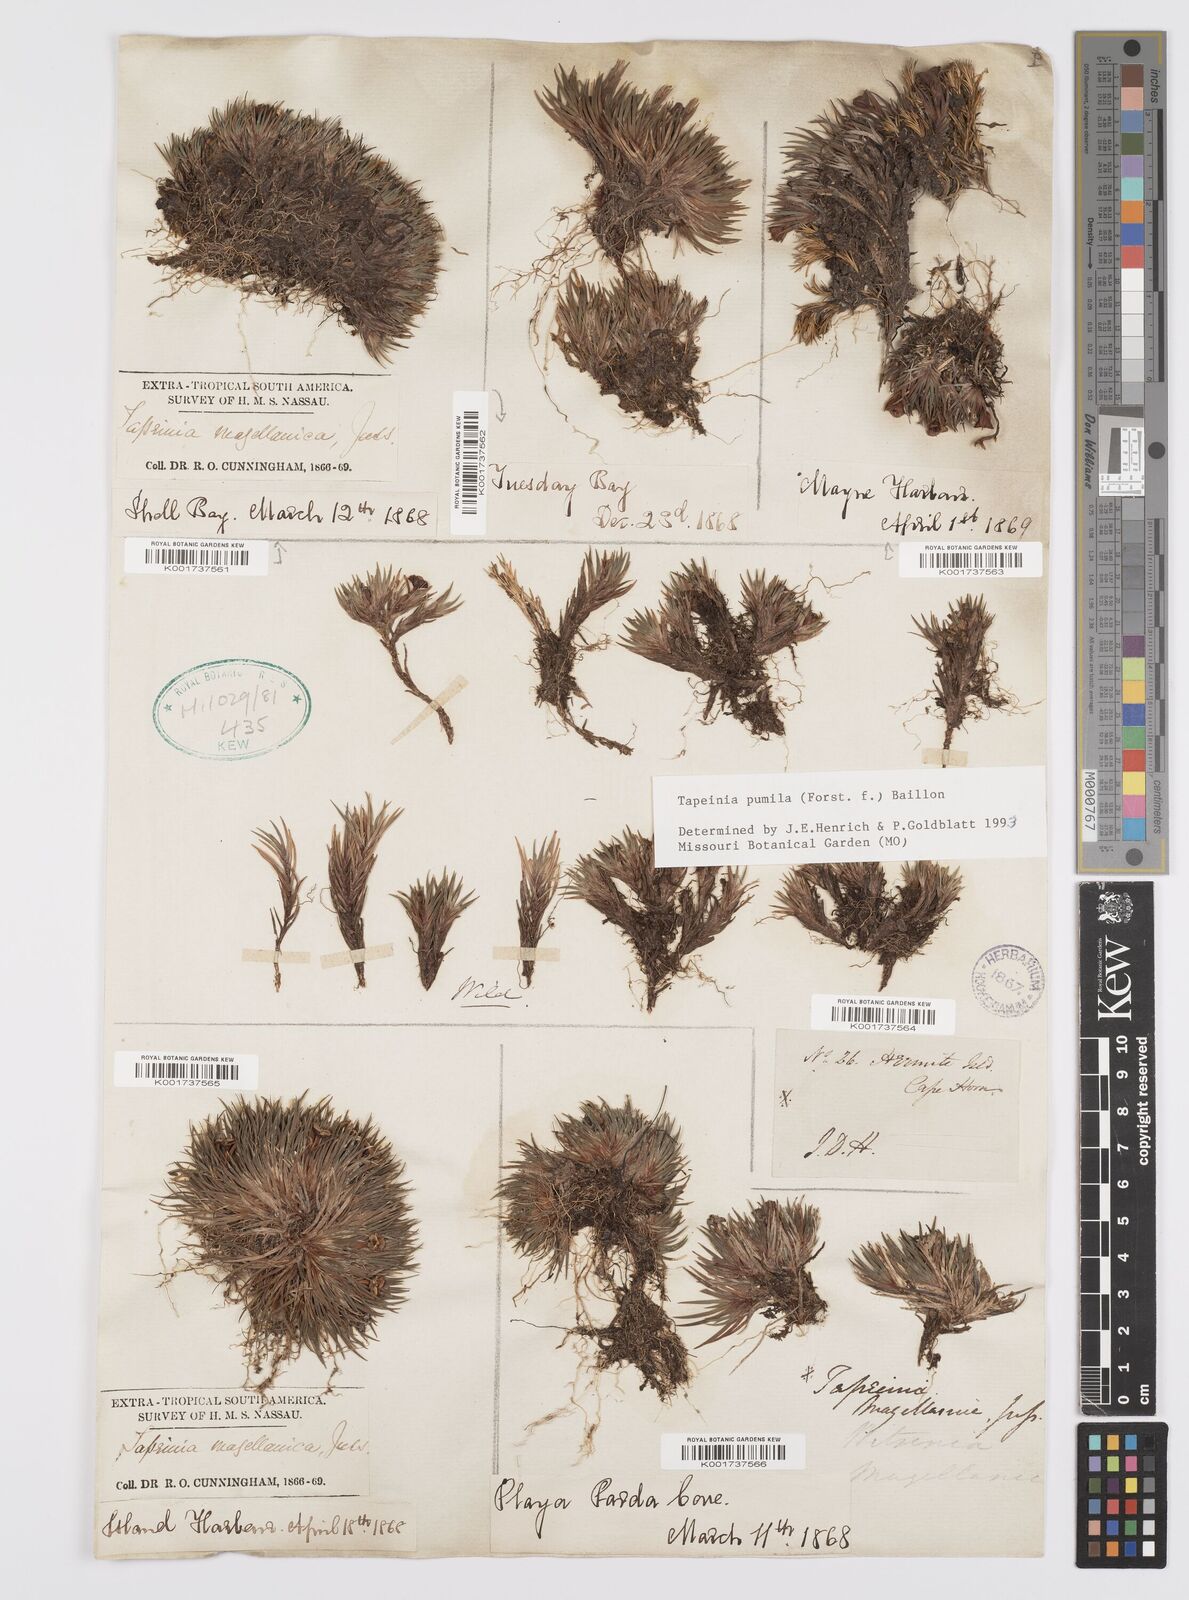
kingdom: Plantae
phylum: Tracheophyta
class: Liliopsida
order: Asparagales
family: Iridaceae
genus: Tapeinia
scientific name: Tapeinia pumila
